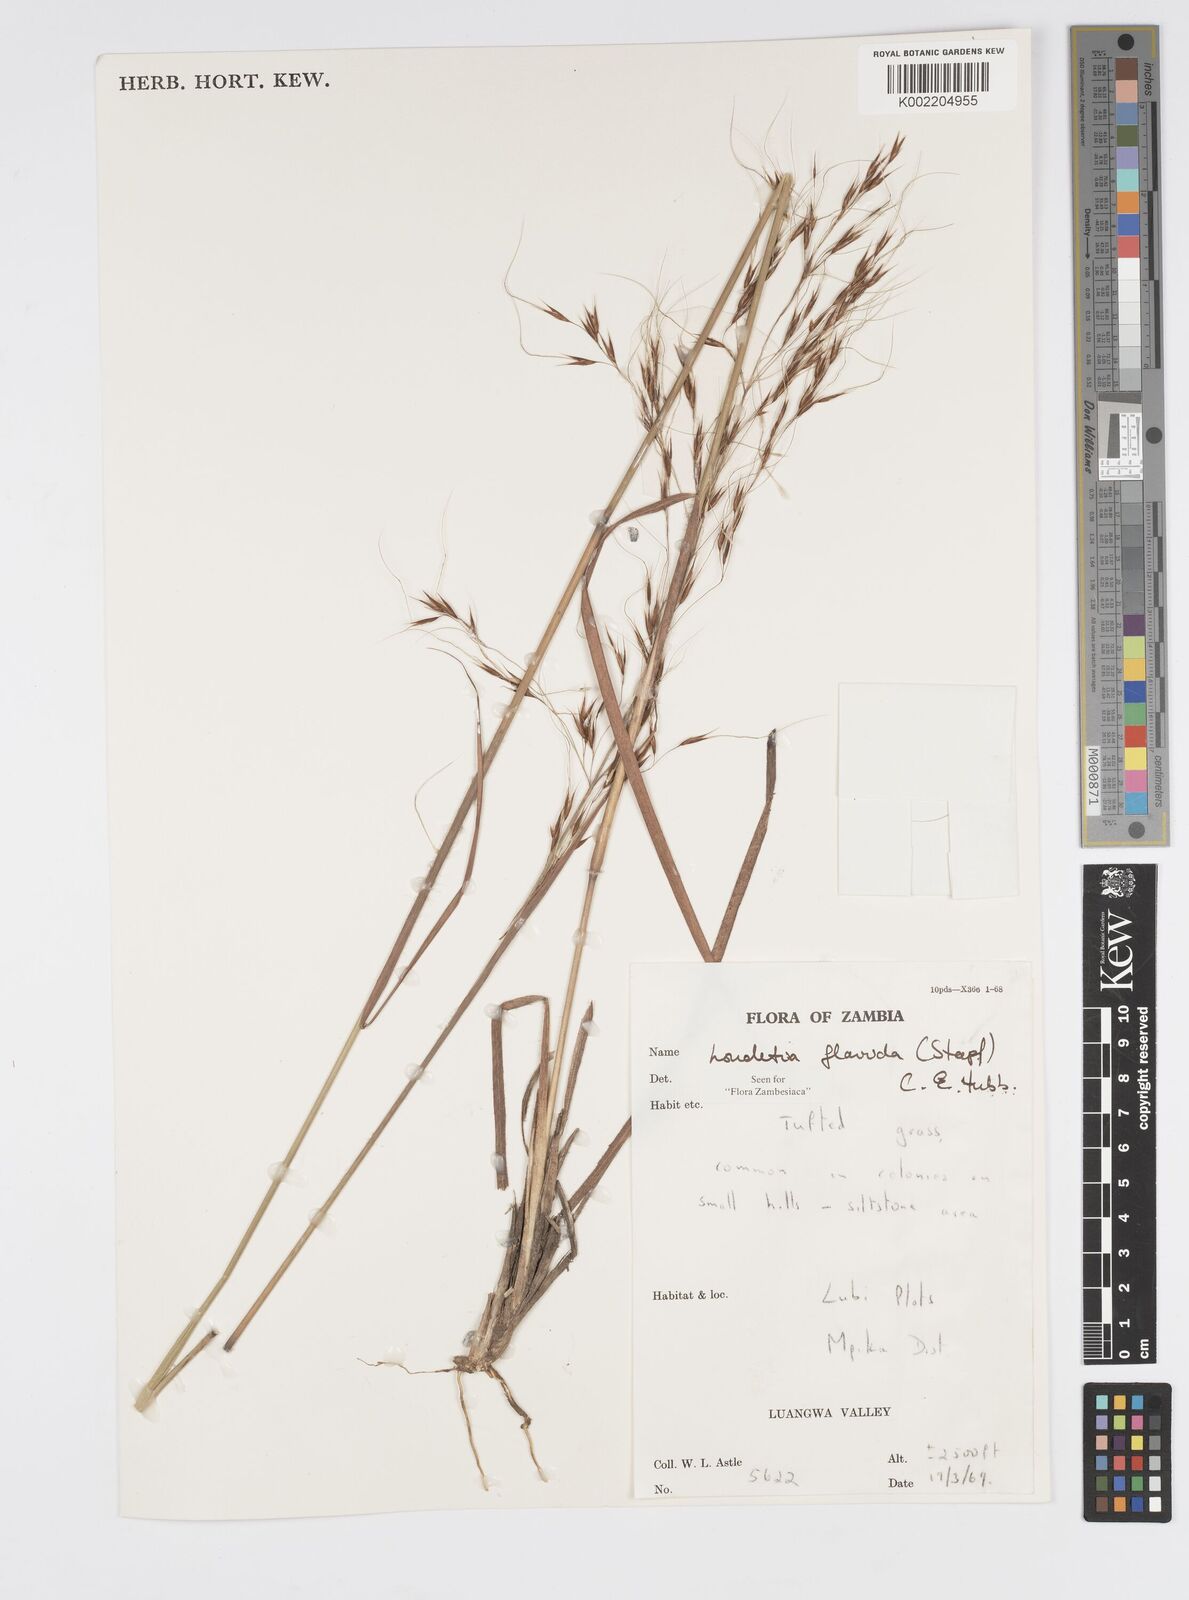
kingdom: Plantae
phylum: Tracheophyta
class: Liliopsida
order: Poales
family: Poaceae
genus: Loudetia
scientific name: Loudetia flavida
